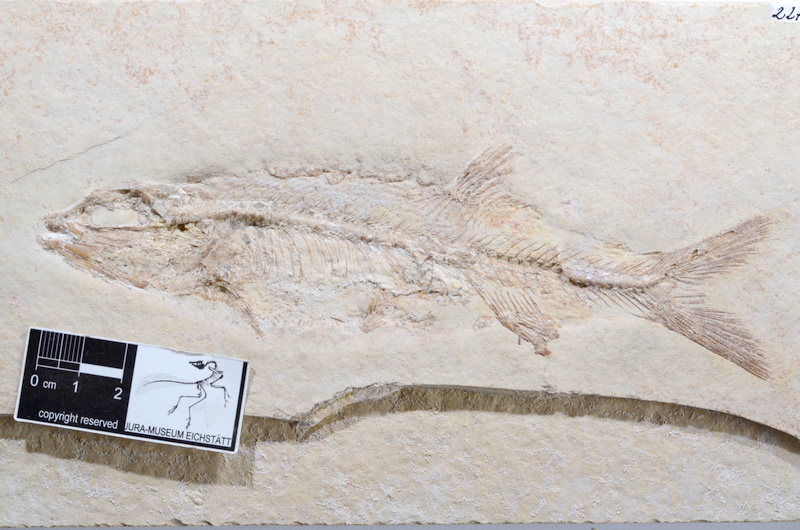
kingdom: Animalia
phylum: Chordata
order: Elopiformes
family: Anaethalionidae
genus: Anaethalion
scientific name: Anaethalion knorri
